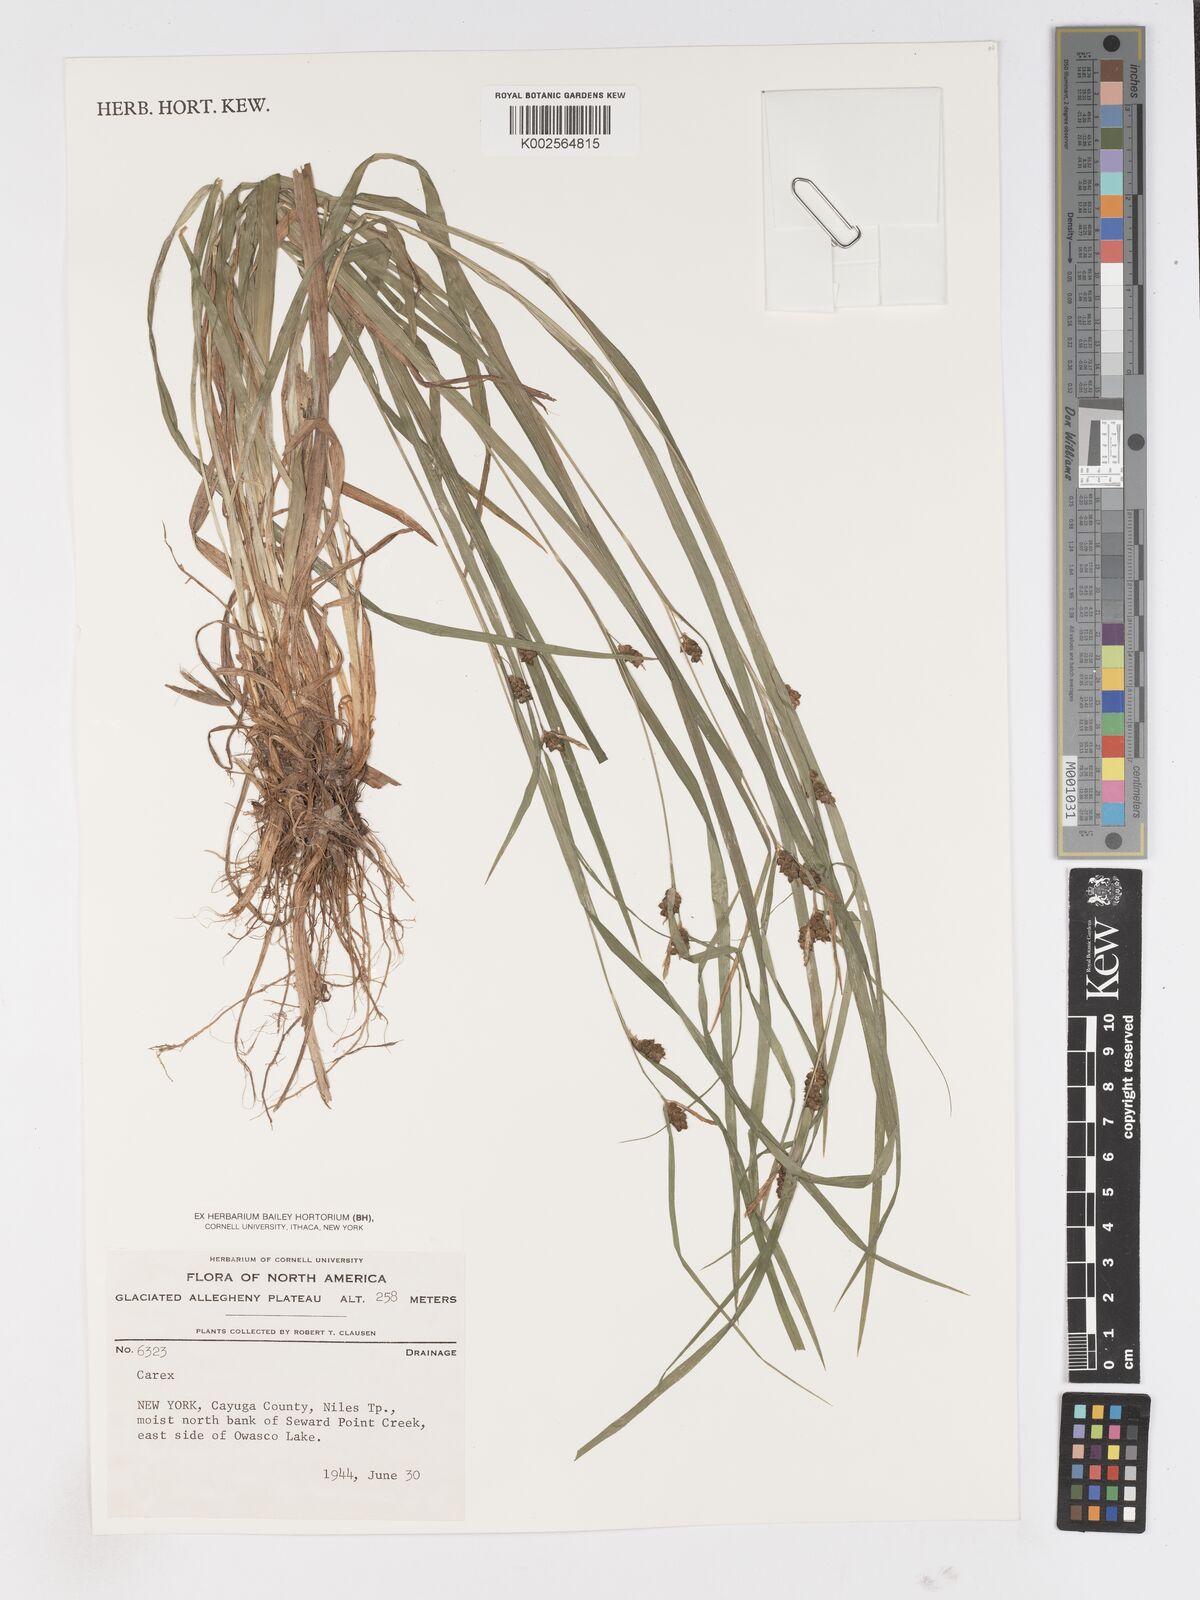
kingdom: Plantae
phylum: Tracheophyta
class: Liliopsida
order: Poales
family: Cyperaceae
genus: Carex
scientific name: Carex
